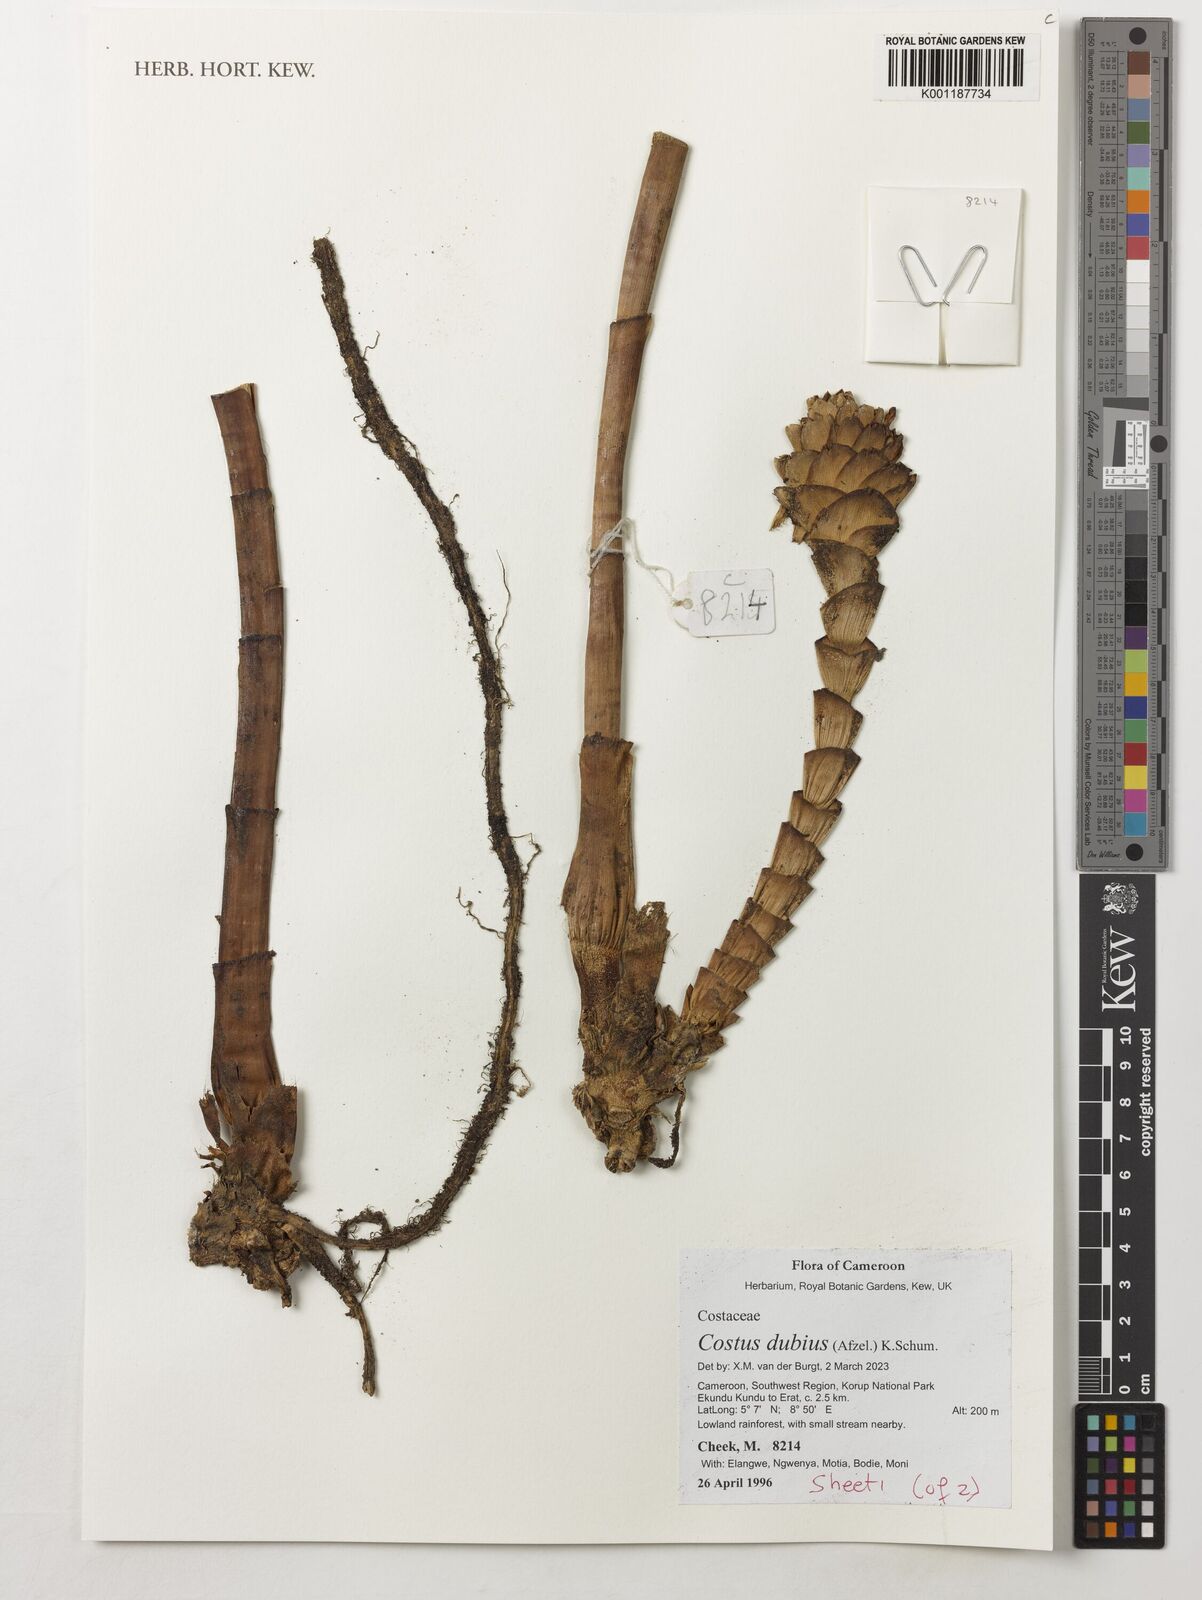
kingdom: Plantae
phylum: Tracheophyta
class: Liliopsida
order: Zingiberales
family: Costaceae
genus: Costus
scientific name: Costus dubius
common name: Costus
